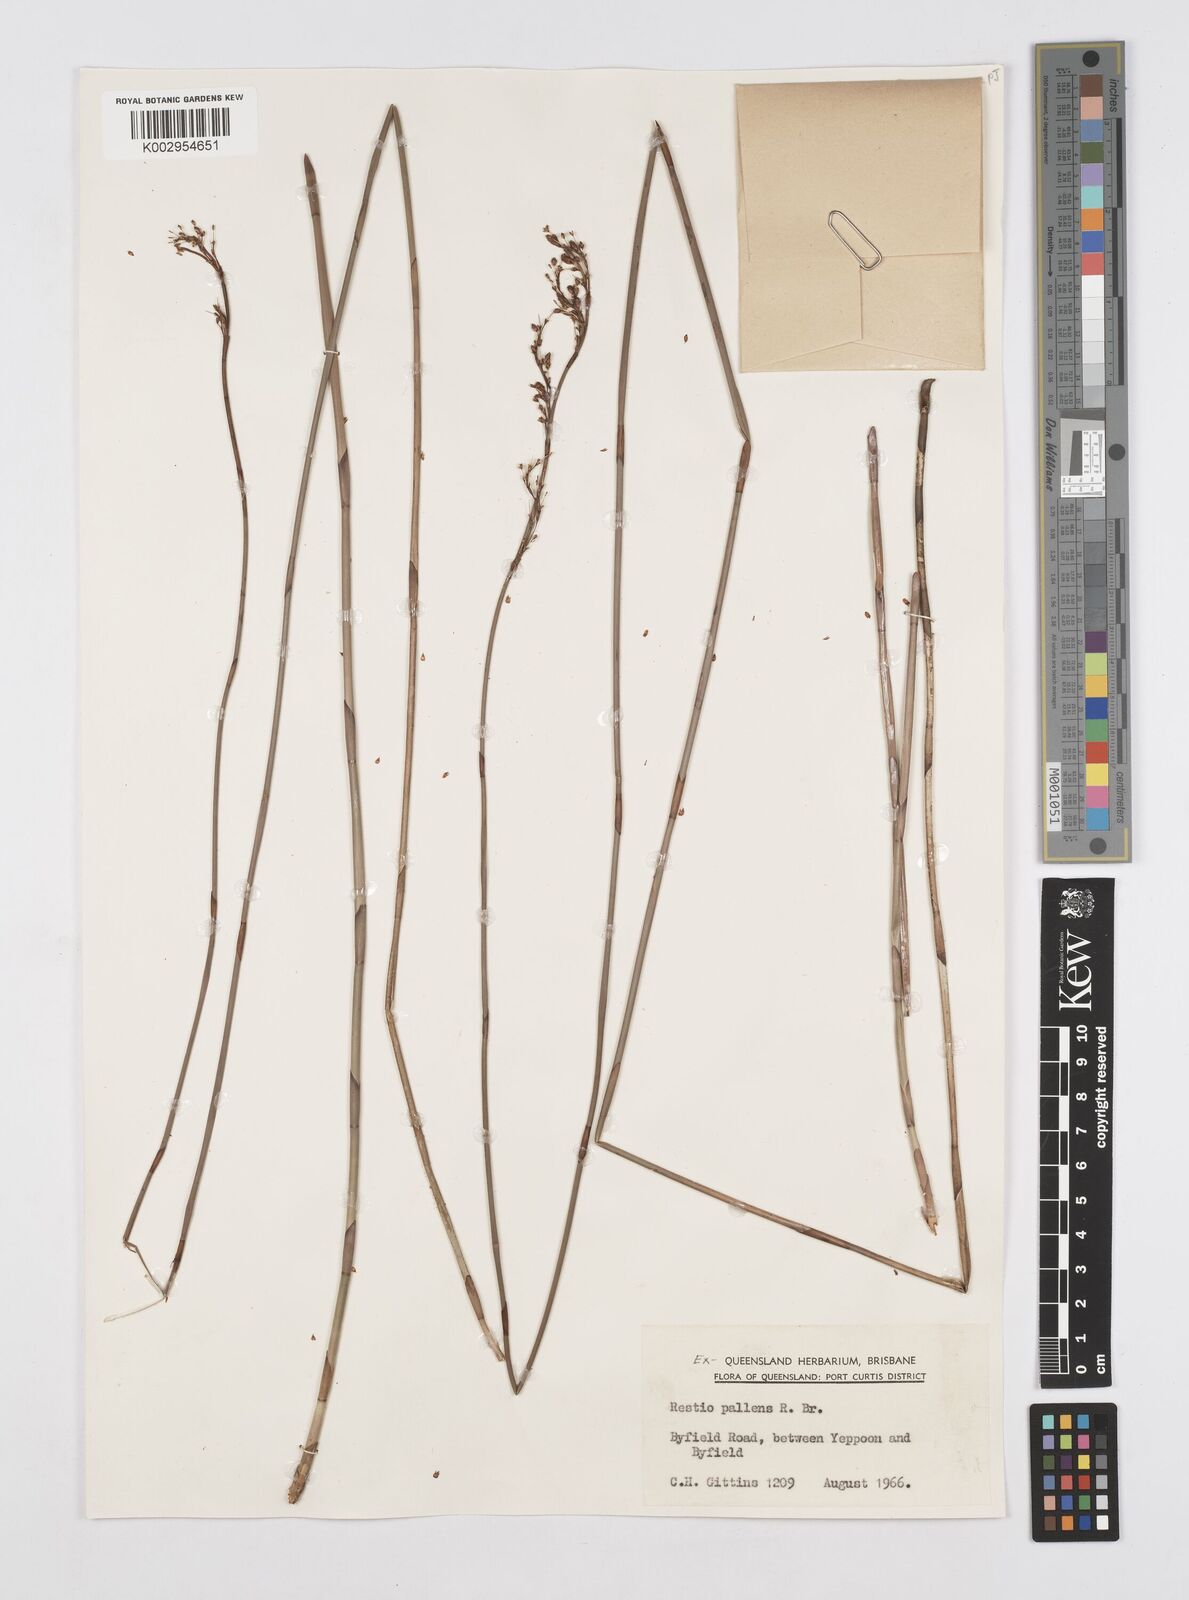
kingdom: Plantae
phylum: Tracheophyta
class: Liliopsida
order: Poales
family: Restionaceae
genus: Baloskion
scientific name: Baloskion pallens
